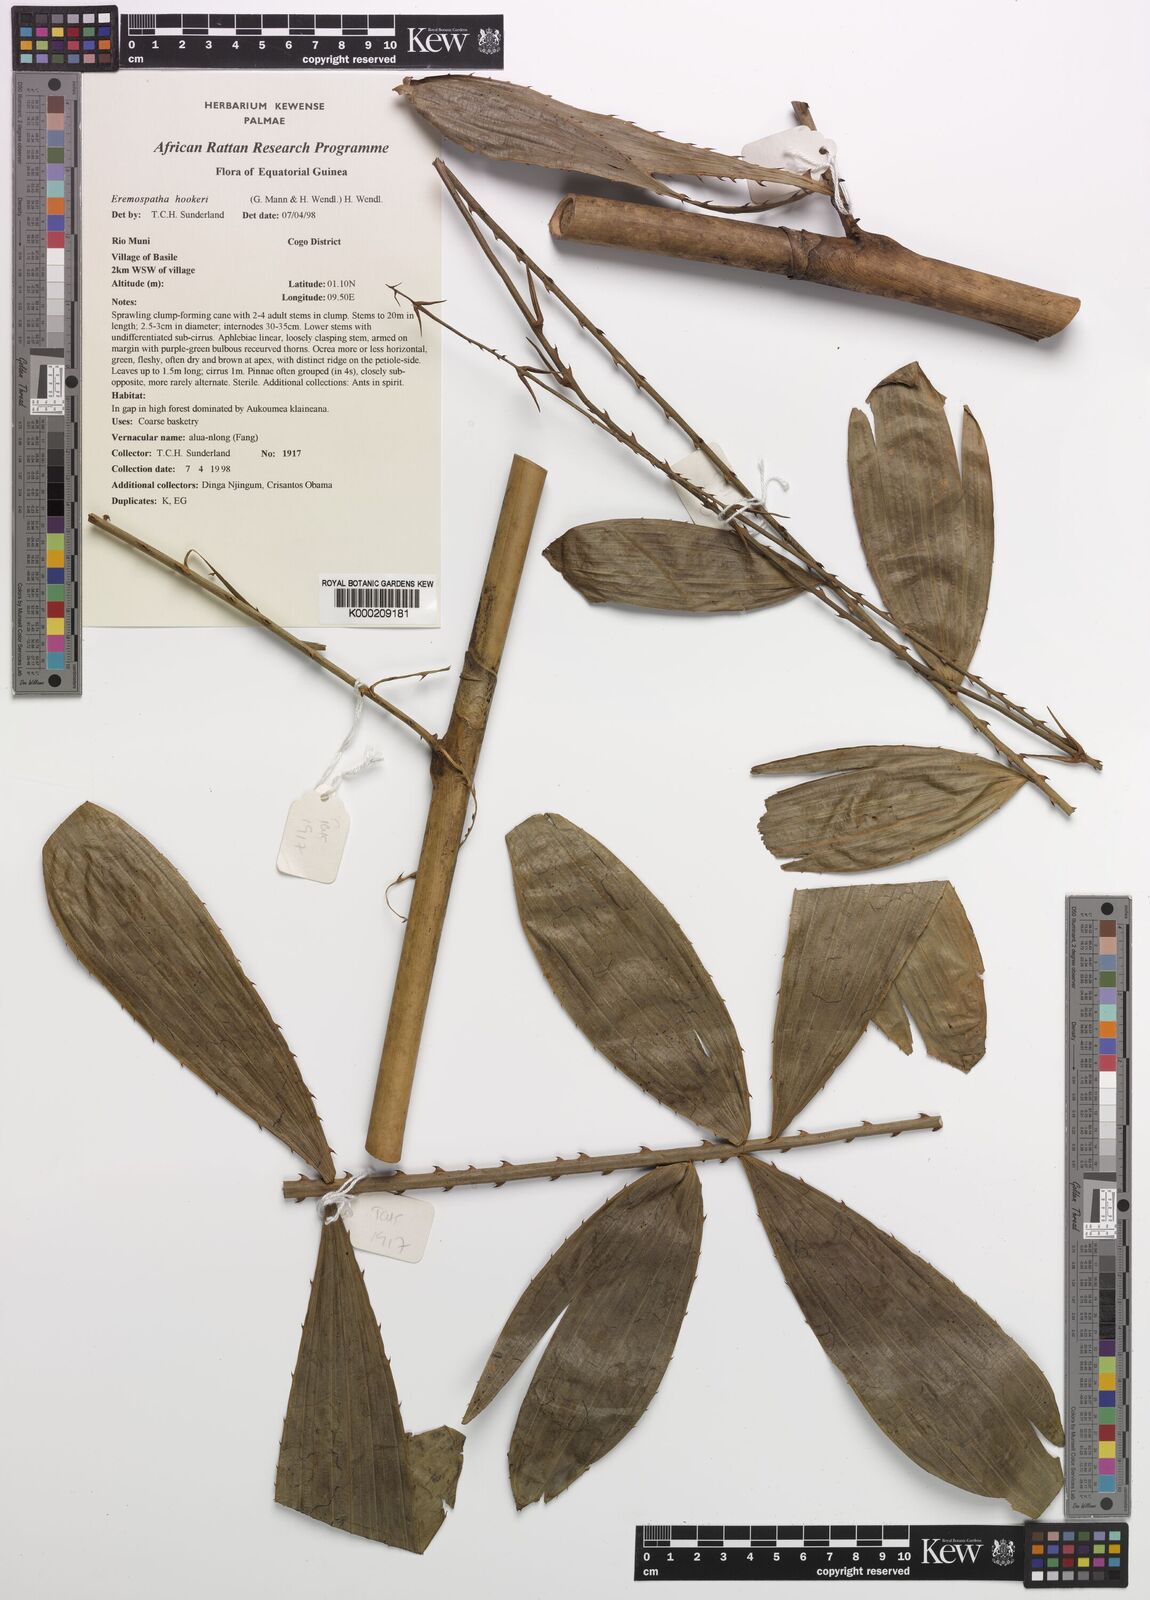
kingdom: Plantae
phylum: Tracheophyta
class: Liliopsida
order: Arecales
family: Arecaceae
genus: Eremospatha
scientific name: Eremospatha hookeri
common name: Rattan
